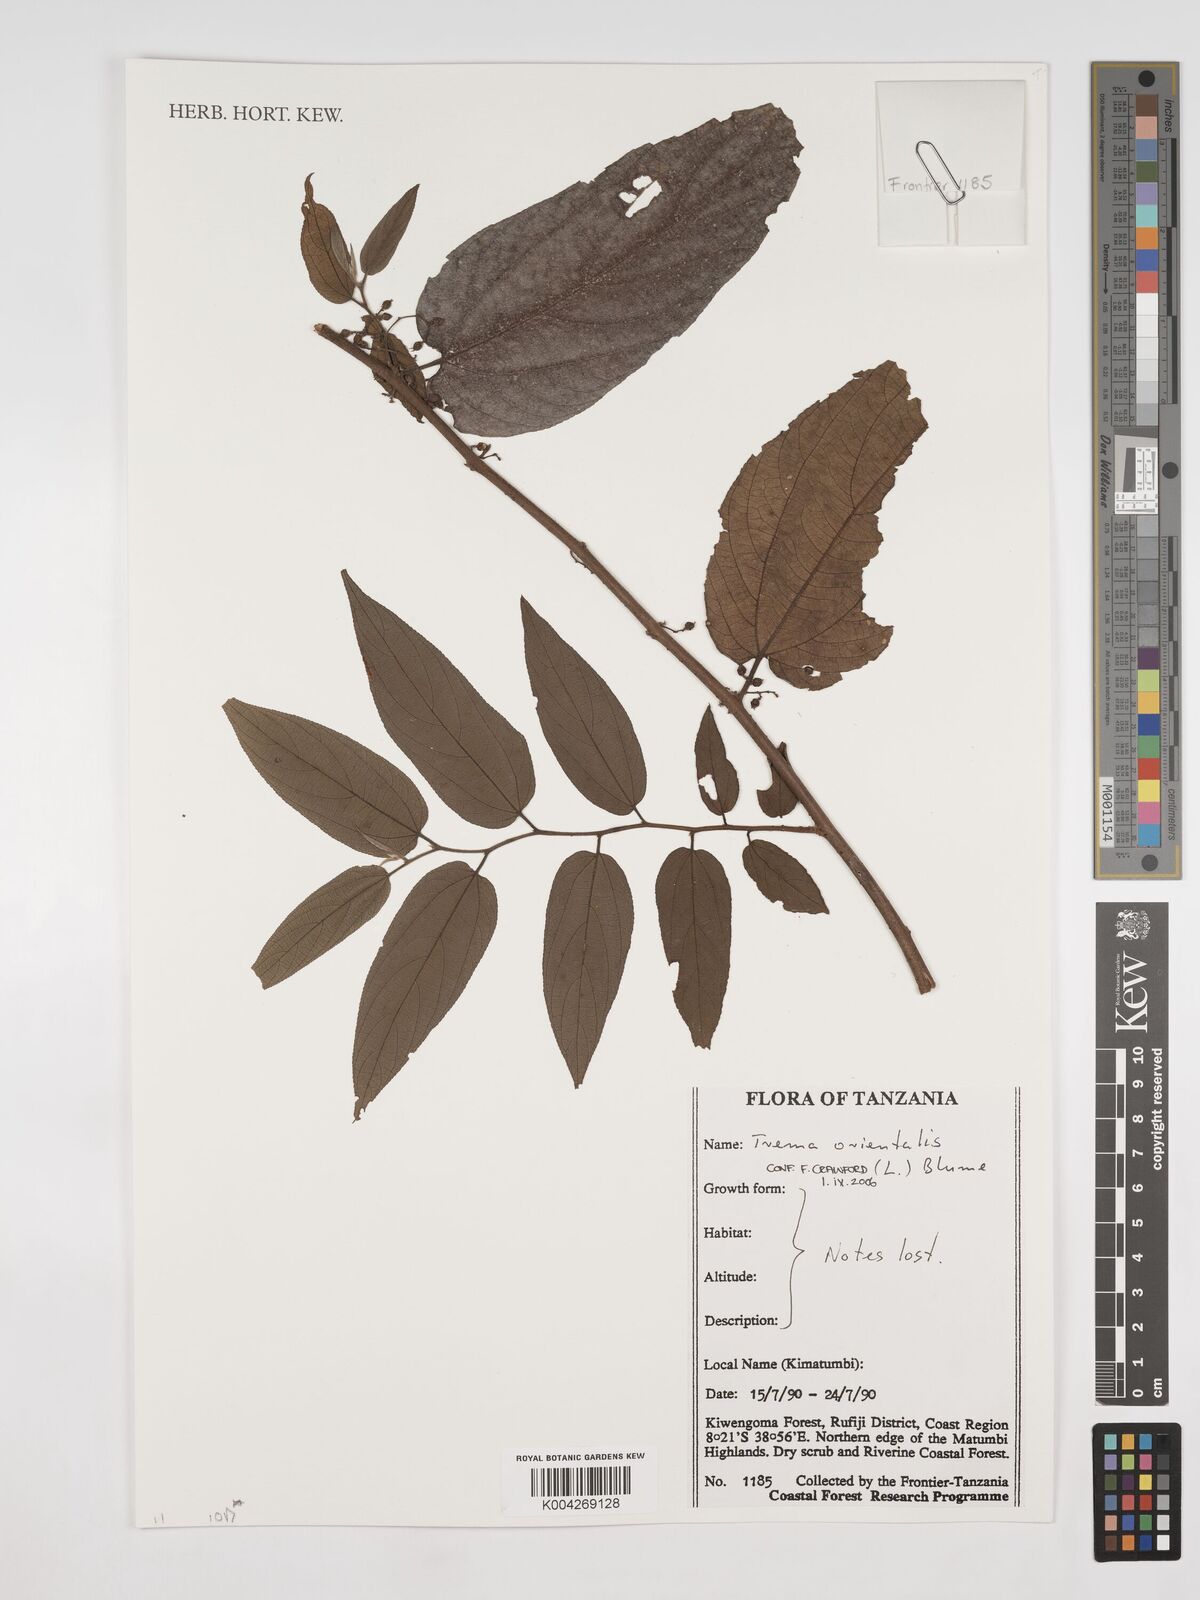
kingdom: Plantae
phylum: Tracheophyta
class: Magnoliopsida
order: Rosales
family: Cannabaceae
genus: Trema
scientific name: Trema orientale
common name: Indian charcoal tree
